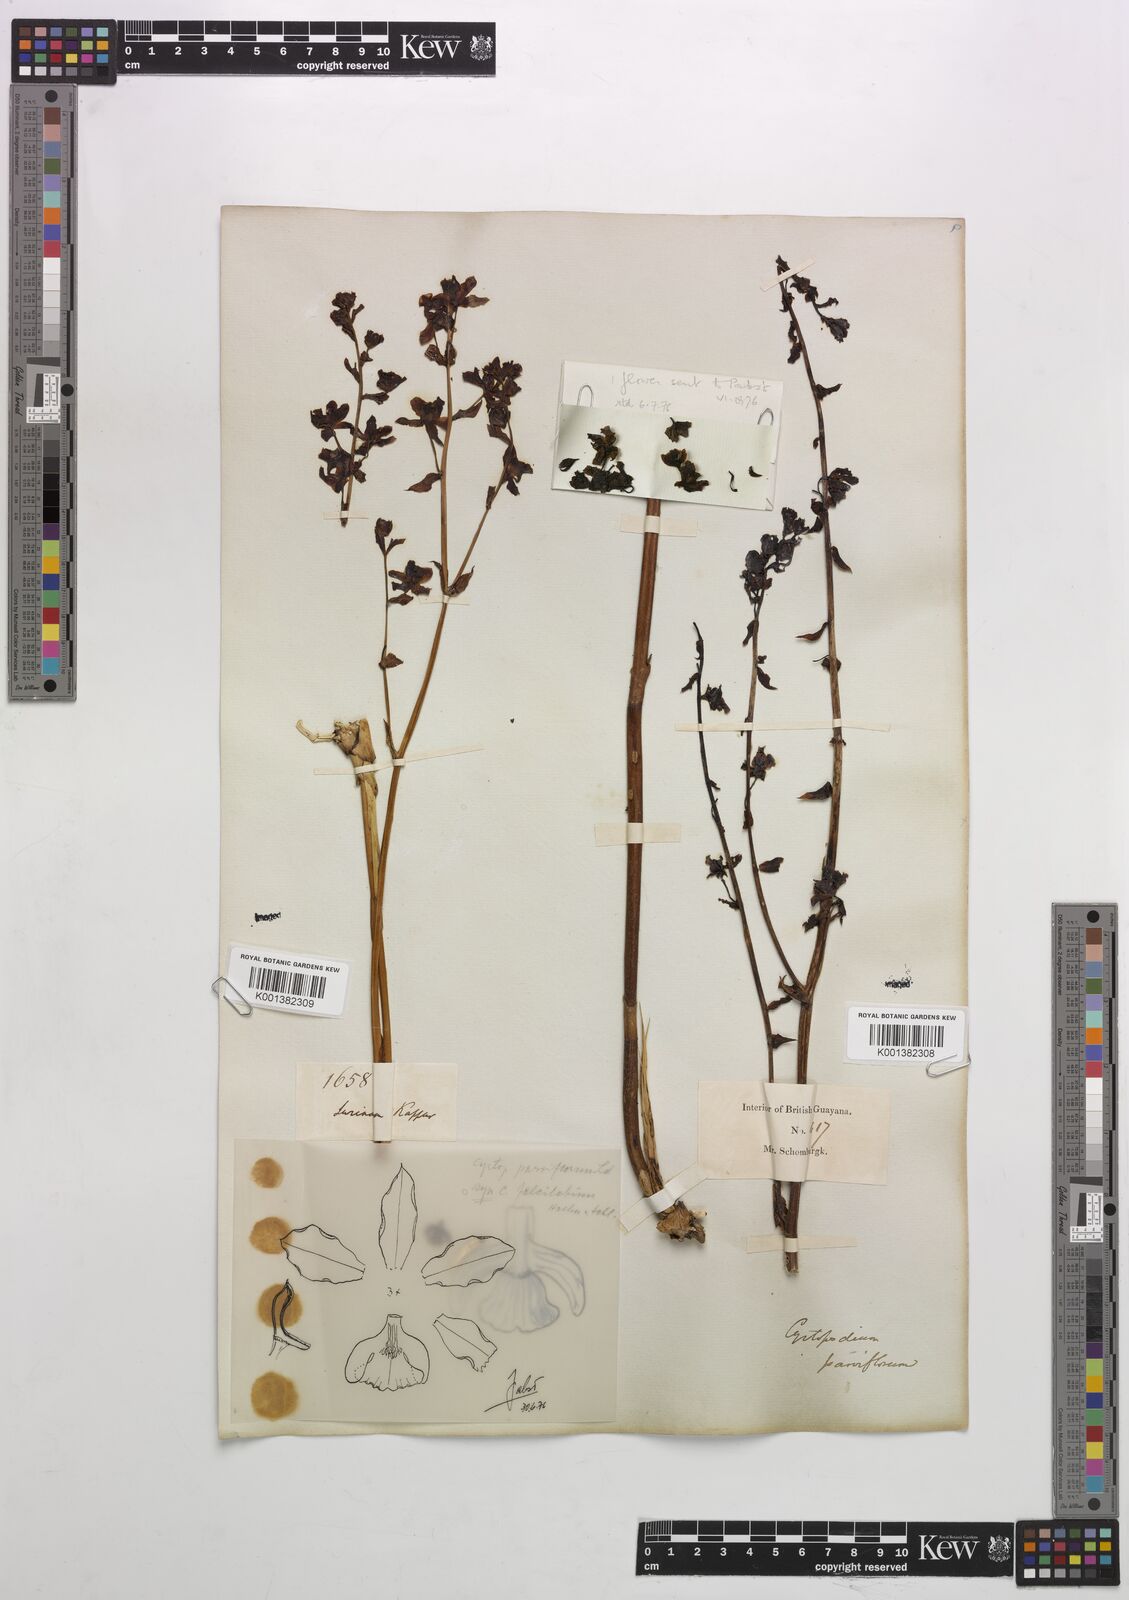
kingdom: Plantae
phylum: Tracheophyta
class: Liliopsida
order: Asparagales
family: Orchidaceae
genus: Cyrtopodium
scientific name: Cyrtopodium parviflorum
